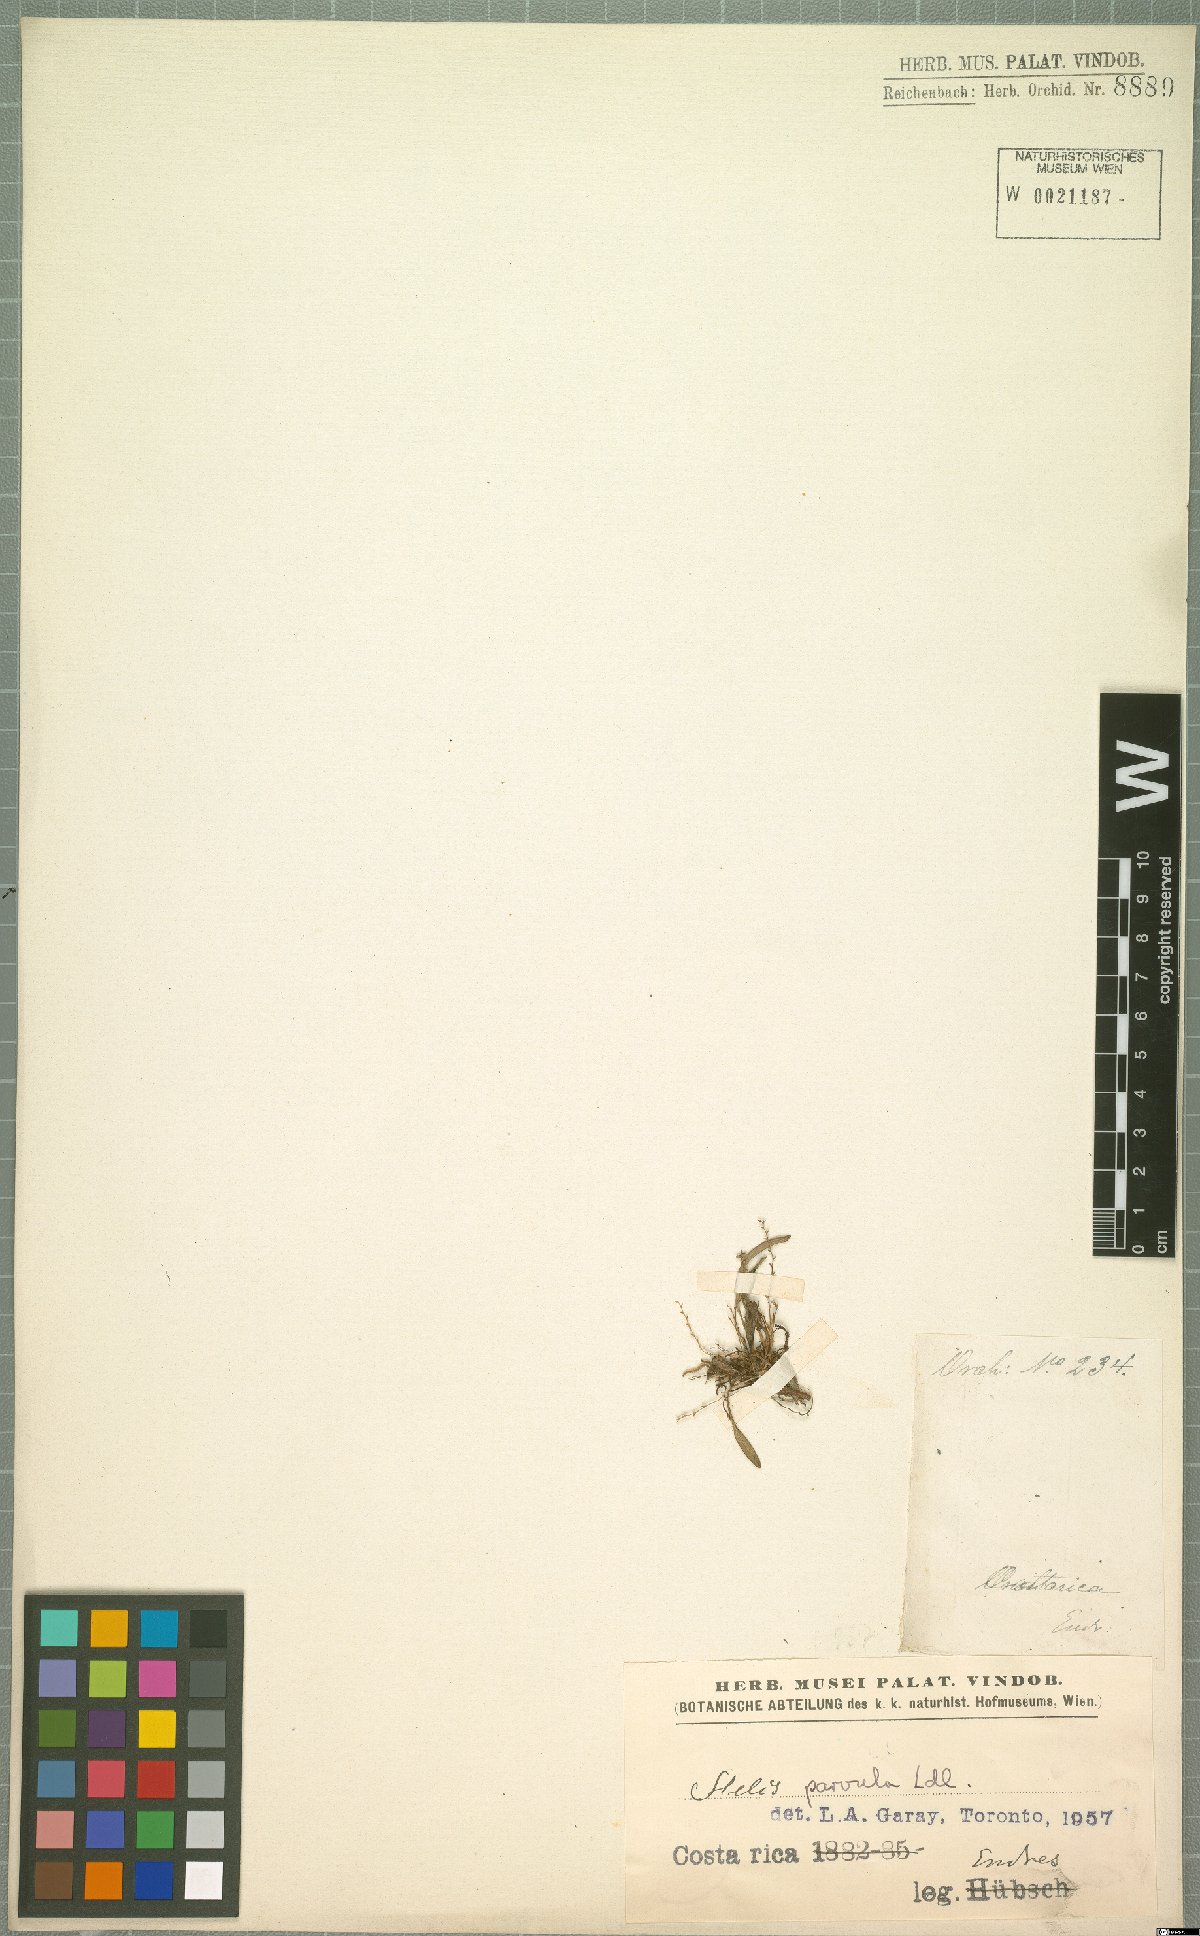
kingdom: Plantae
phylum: Tracheophyta
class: Liliopsida
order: Asparagales
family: Orchidaceae
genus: Stelis
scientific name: Stelis parvula
